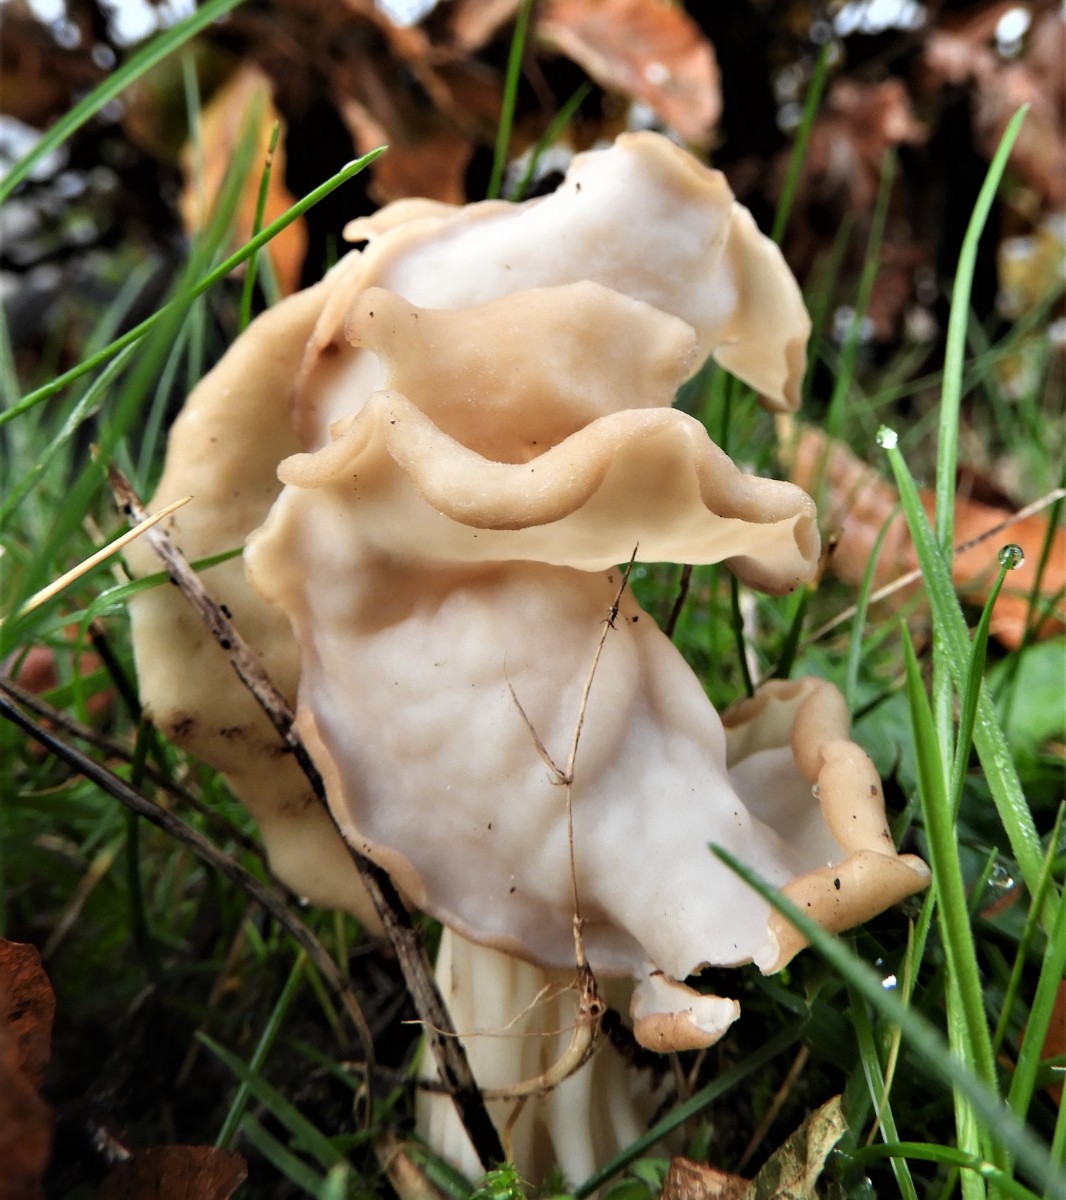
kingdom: Fungi
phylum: Ascomycota
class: Pezizomycetes
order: Pezizales
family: Helvellaceae
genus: Helvella
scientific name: Helvella crispa
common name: kruset foldhat
